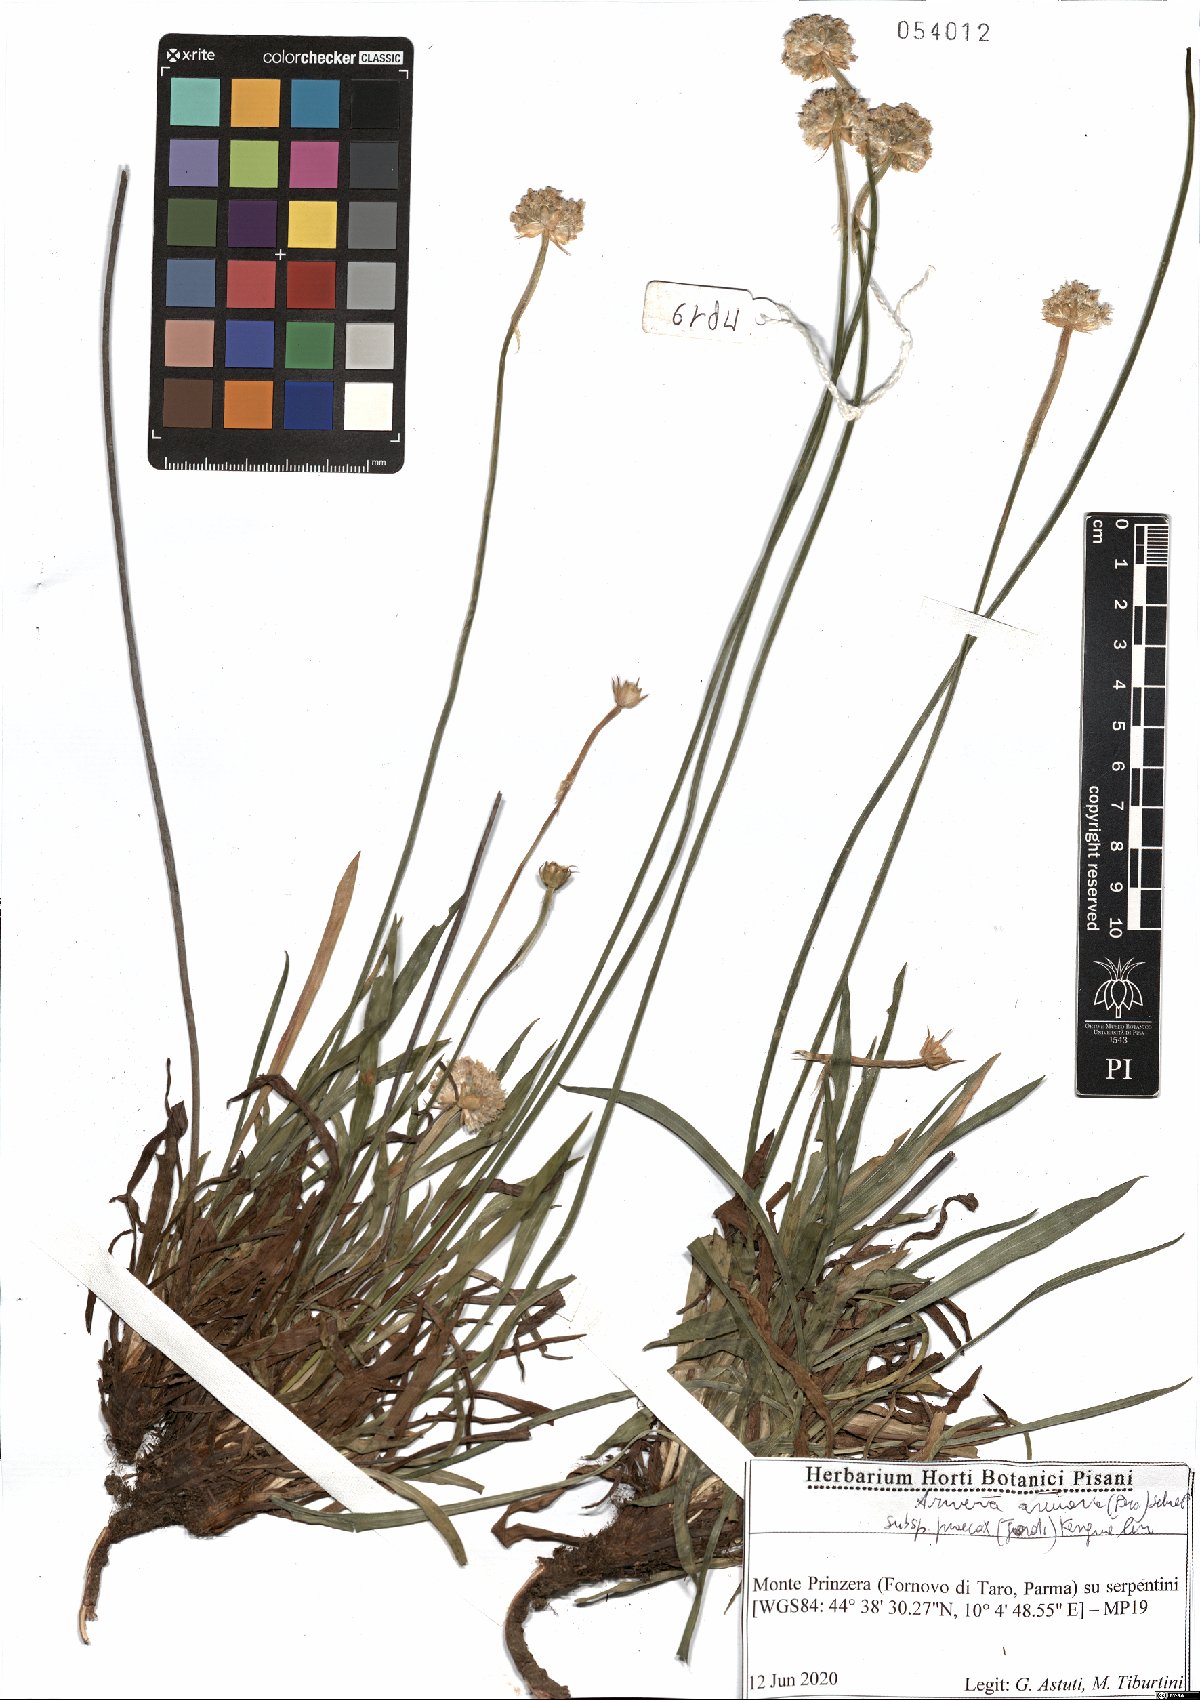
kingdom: Plantae
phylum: Tracheophyta
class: Magnoliopsida
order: Caryophyllales
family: Plumbaginaceae
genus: Armeria
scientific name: Armeria arenaria
